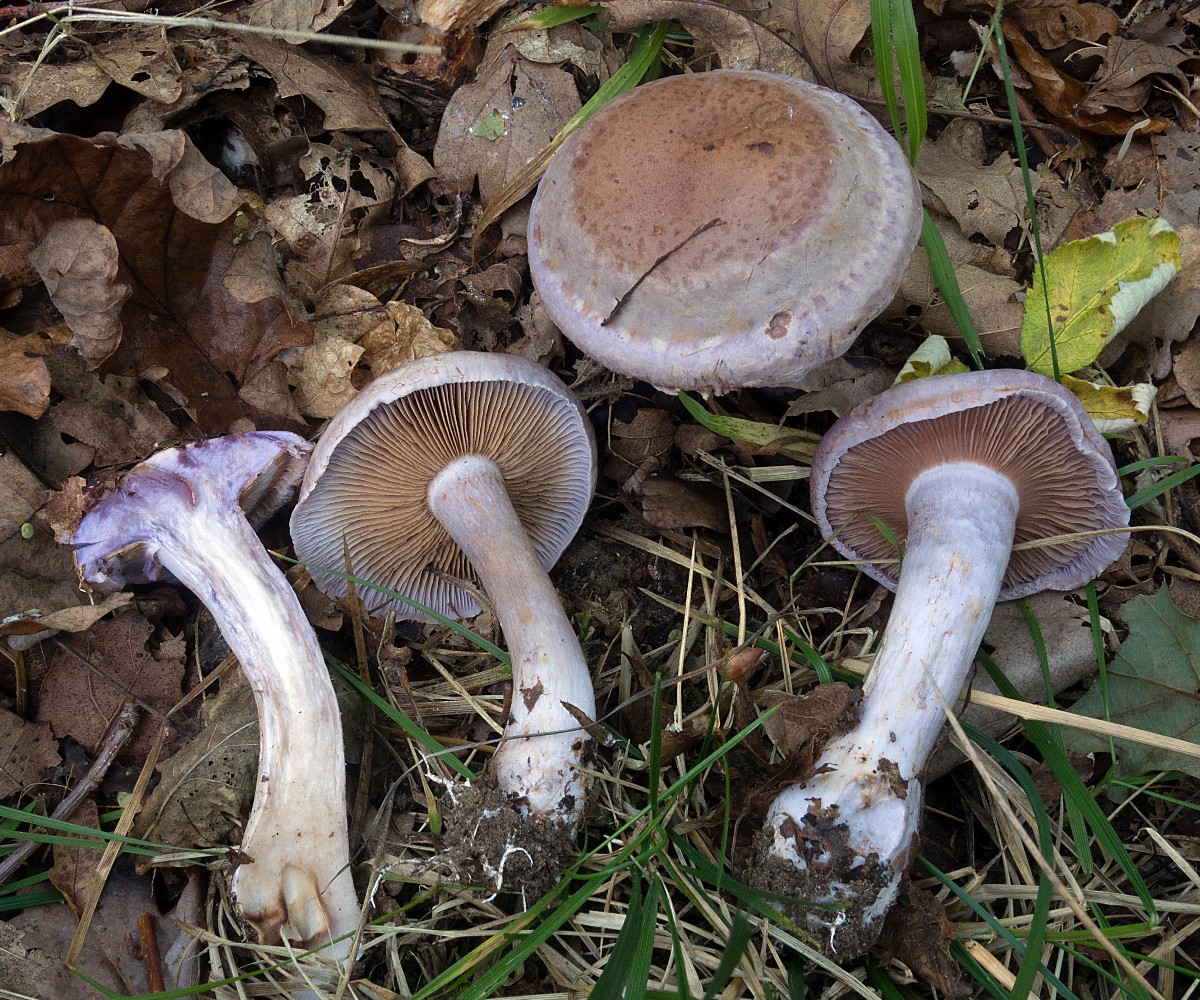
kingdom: Fungi
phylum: Basidiomycota
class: Agaricomycetes
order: Agaricales
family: Cortinariaceae
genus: Cortinarius
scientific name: Cortinarius largus
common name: violetrandet slørhat
